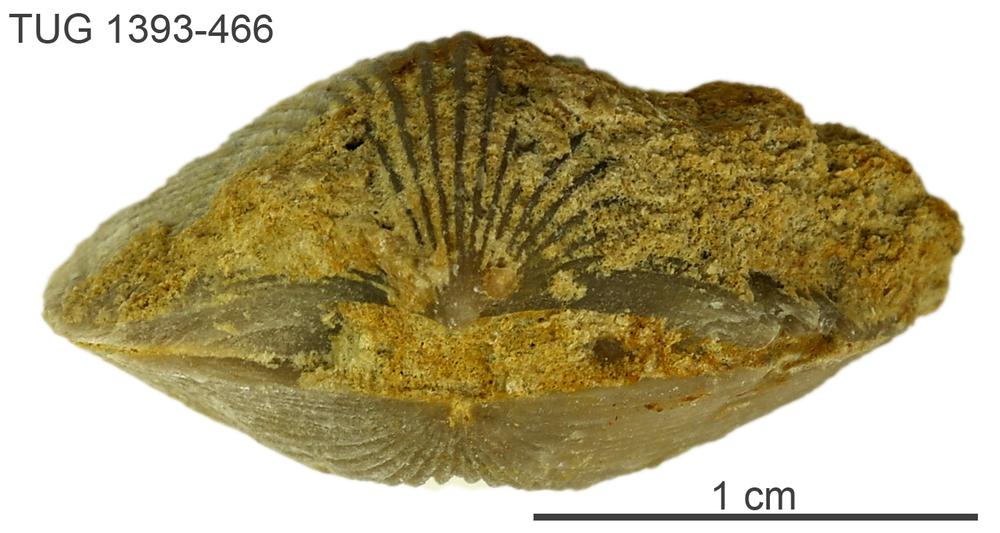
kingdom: Animalia
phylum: Brachiopoda
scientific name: Brachiopoda
